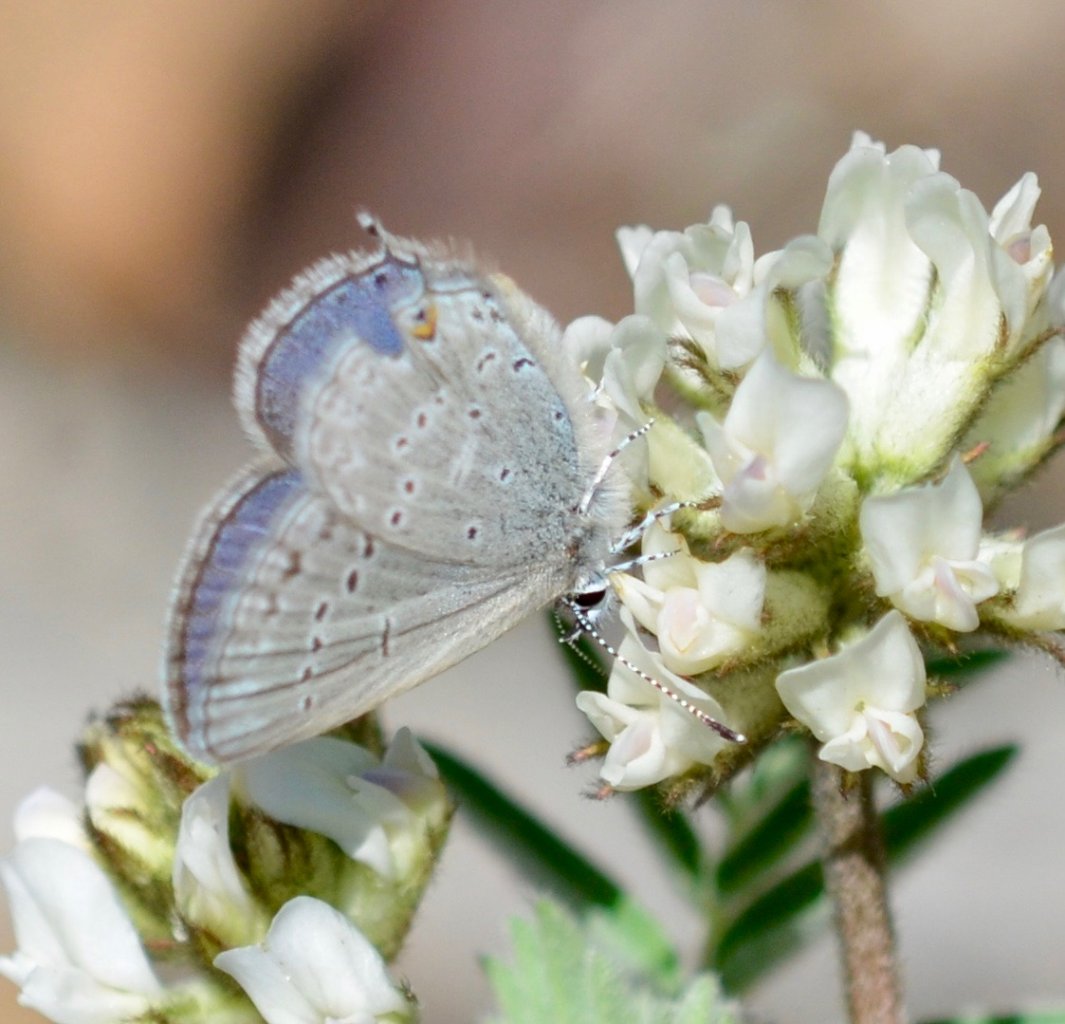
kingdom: Animalia
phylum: Arthropoda
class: Insecta
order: Lepidoptera
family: Lycaenidae
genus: Elkalyce
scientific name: Elkalyce amyntula
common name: Western Tailed-Blue
